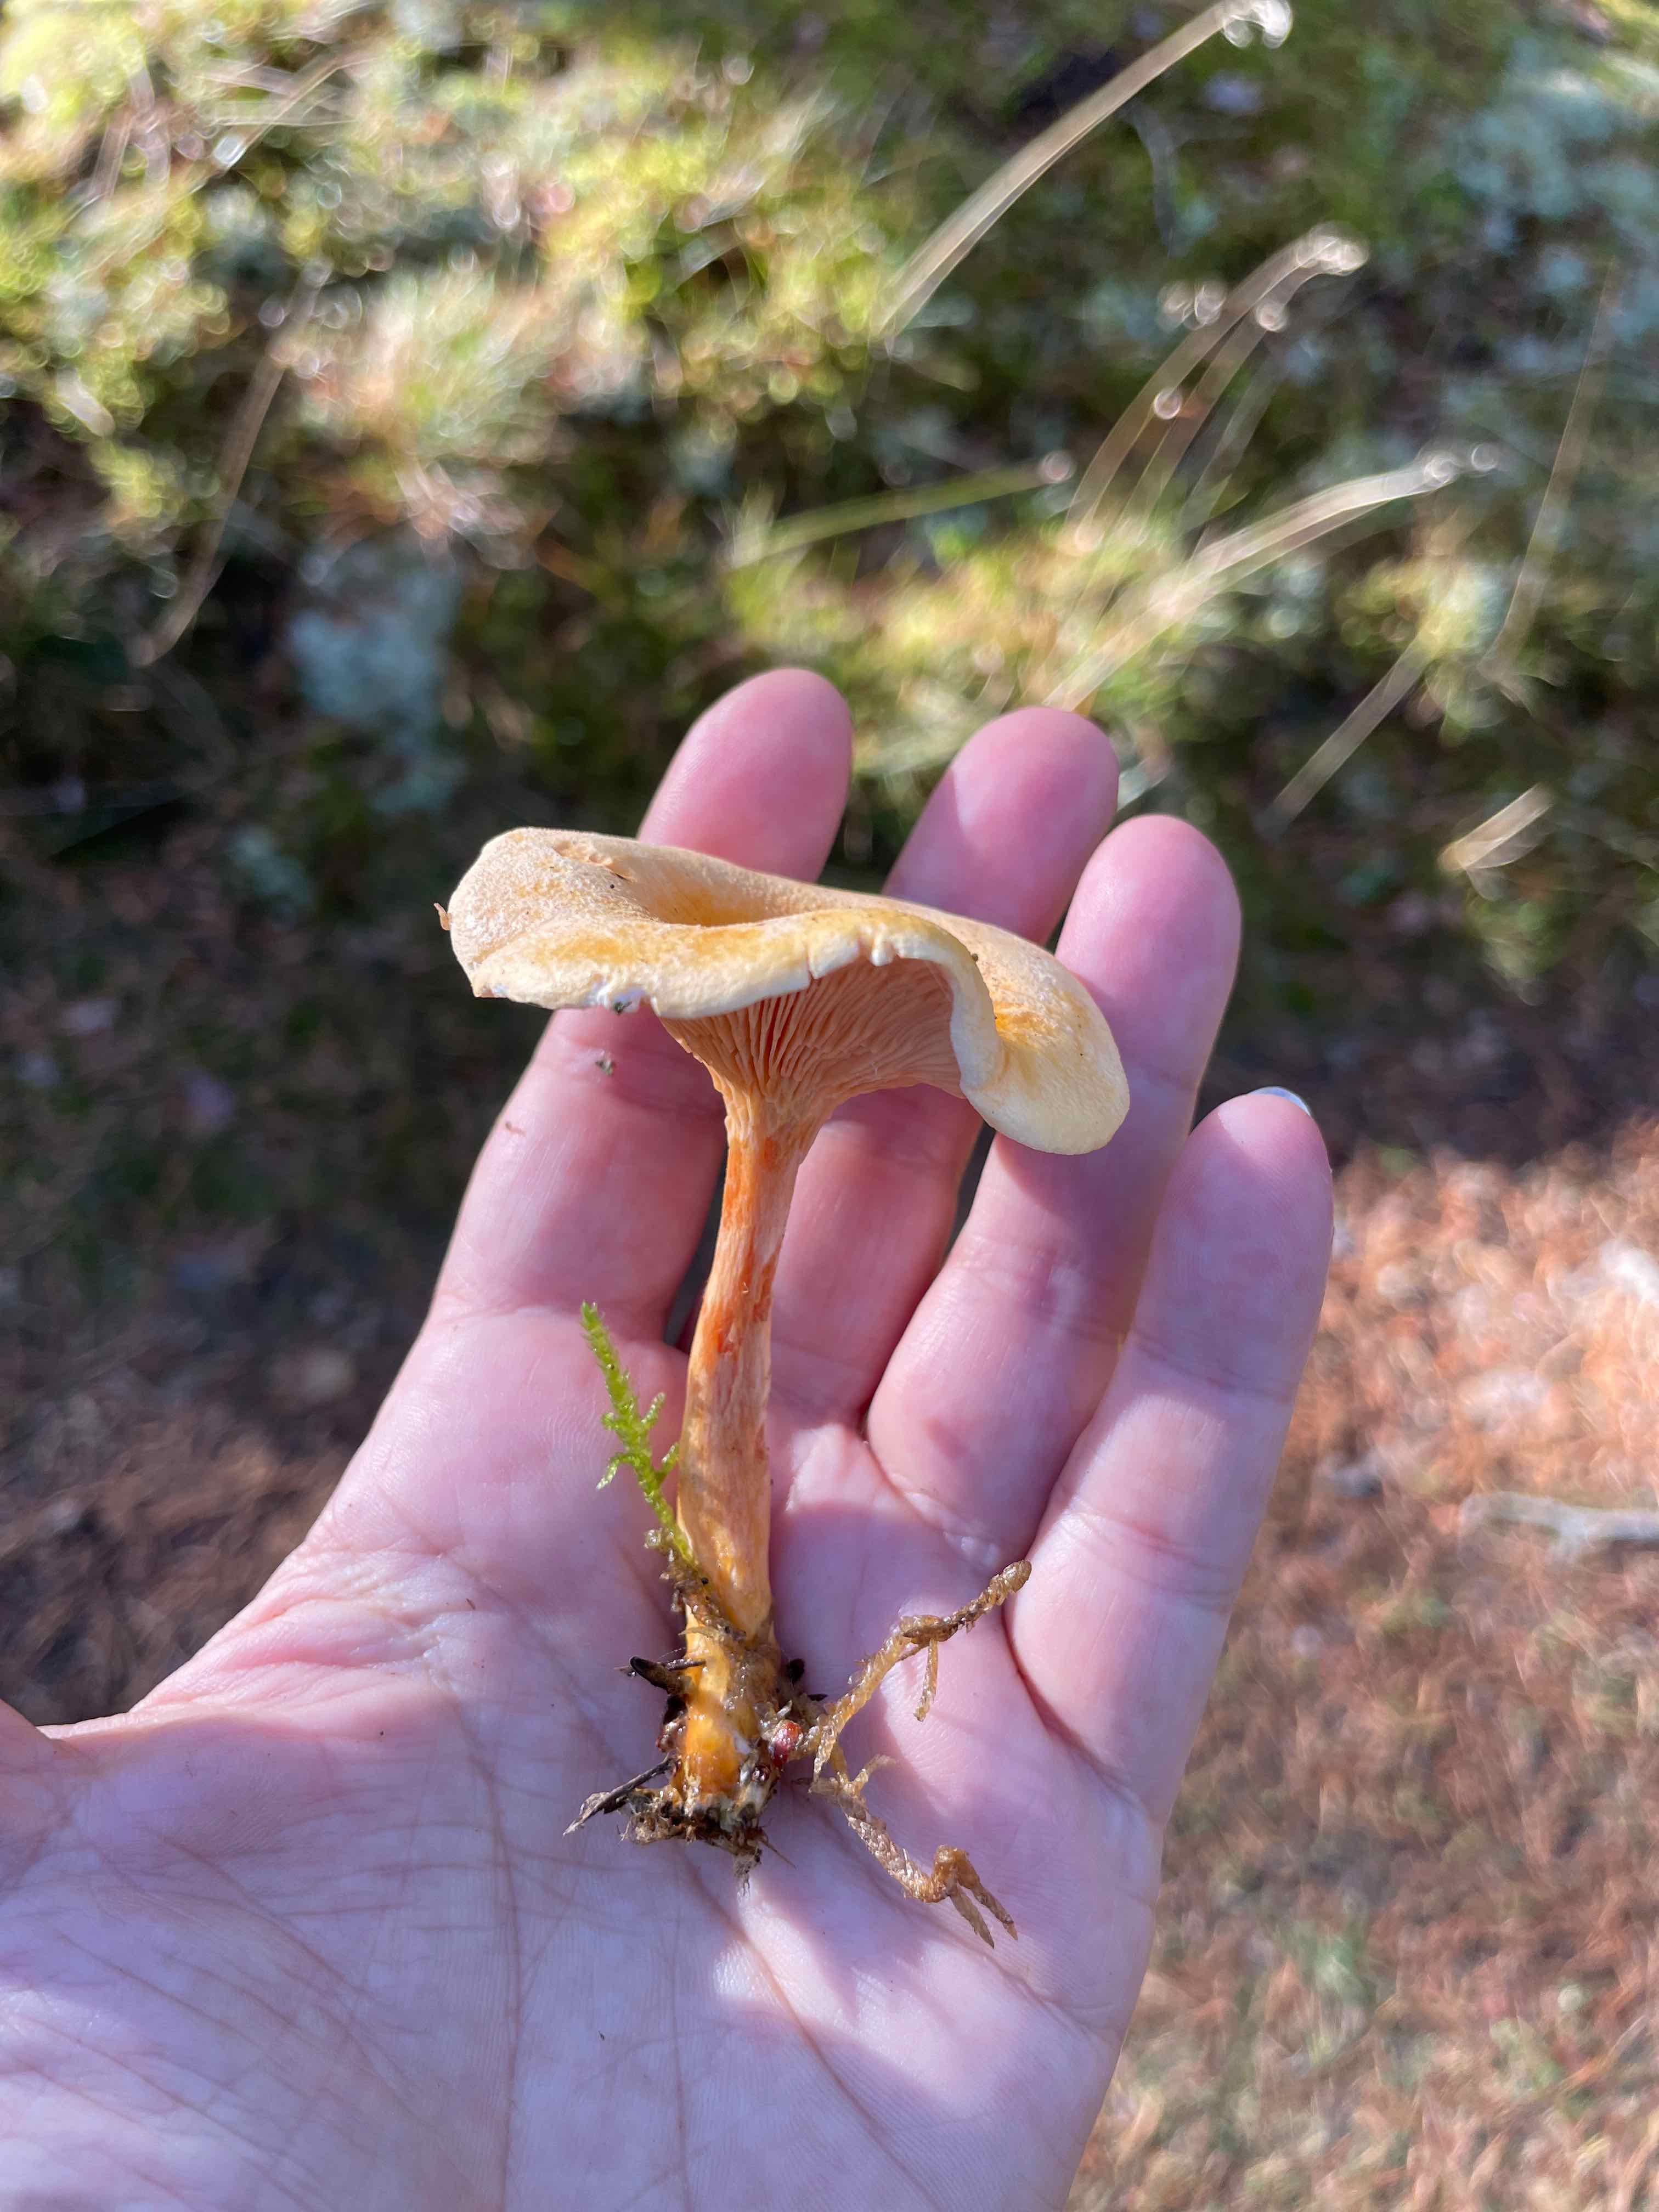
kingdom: Fungi
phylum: Basidiomycota
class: Agaricomycetes
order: Boletales
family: Hygrophoropsidaceae
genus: Hygrophoropsis
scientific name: Hygrophoropsis aurantiaca
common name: almindelig orangekantarel
